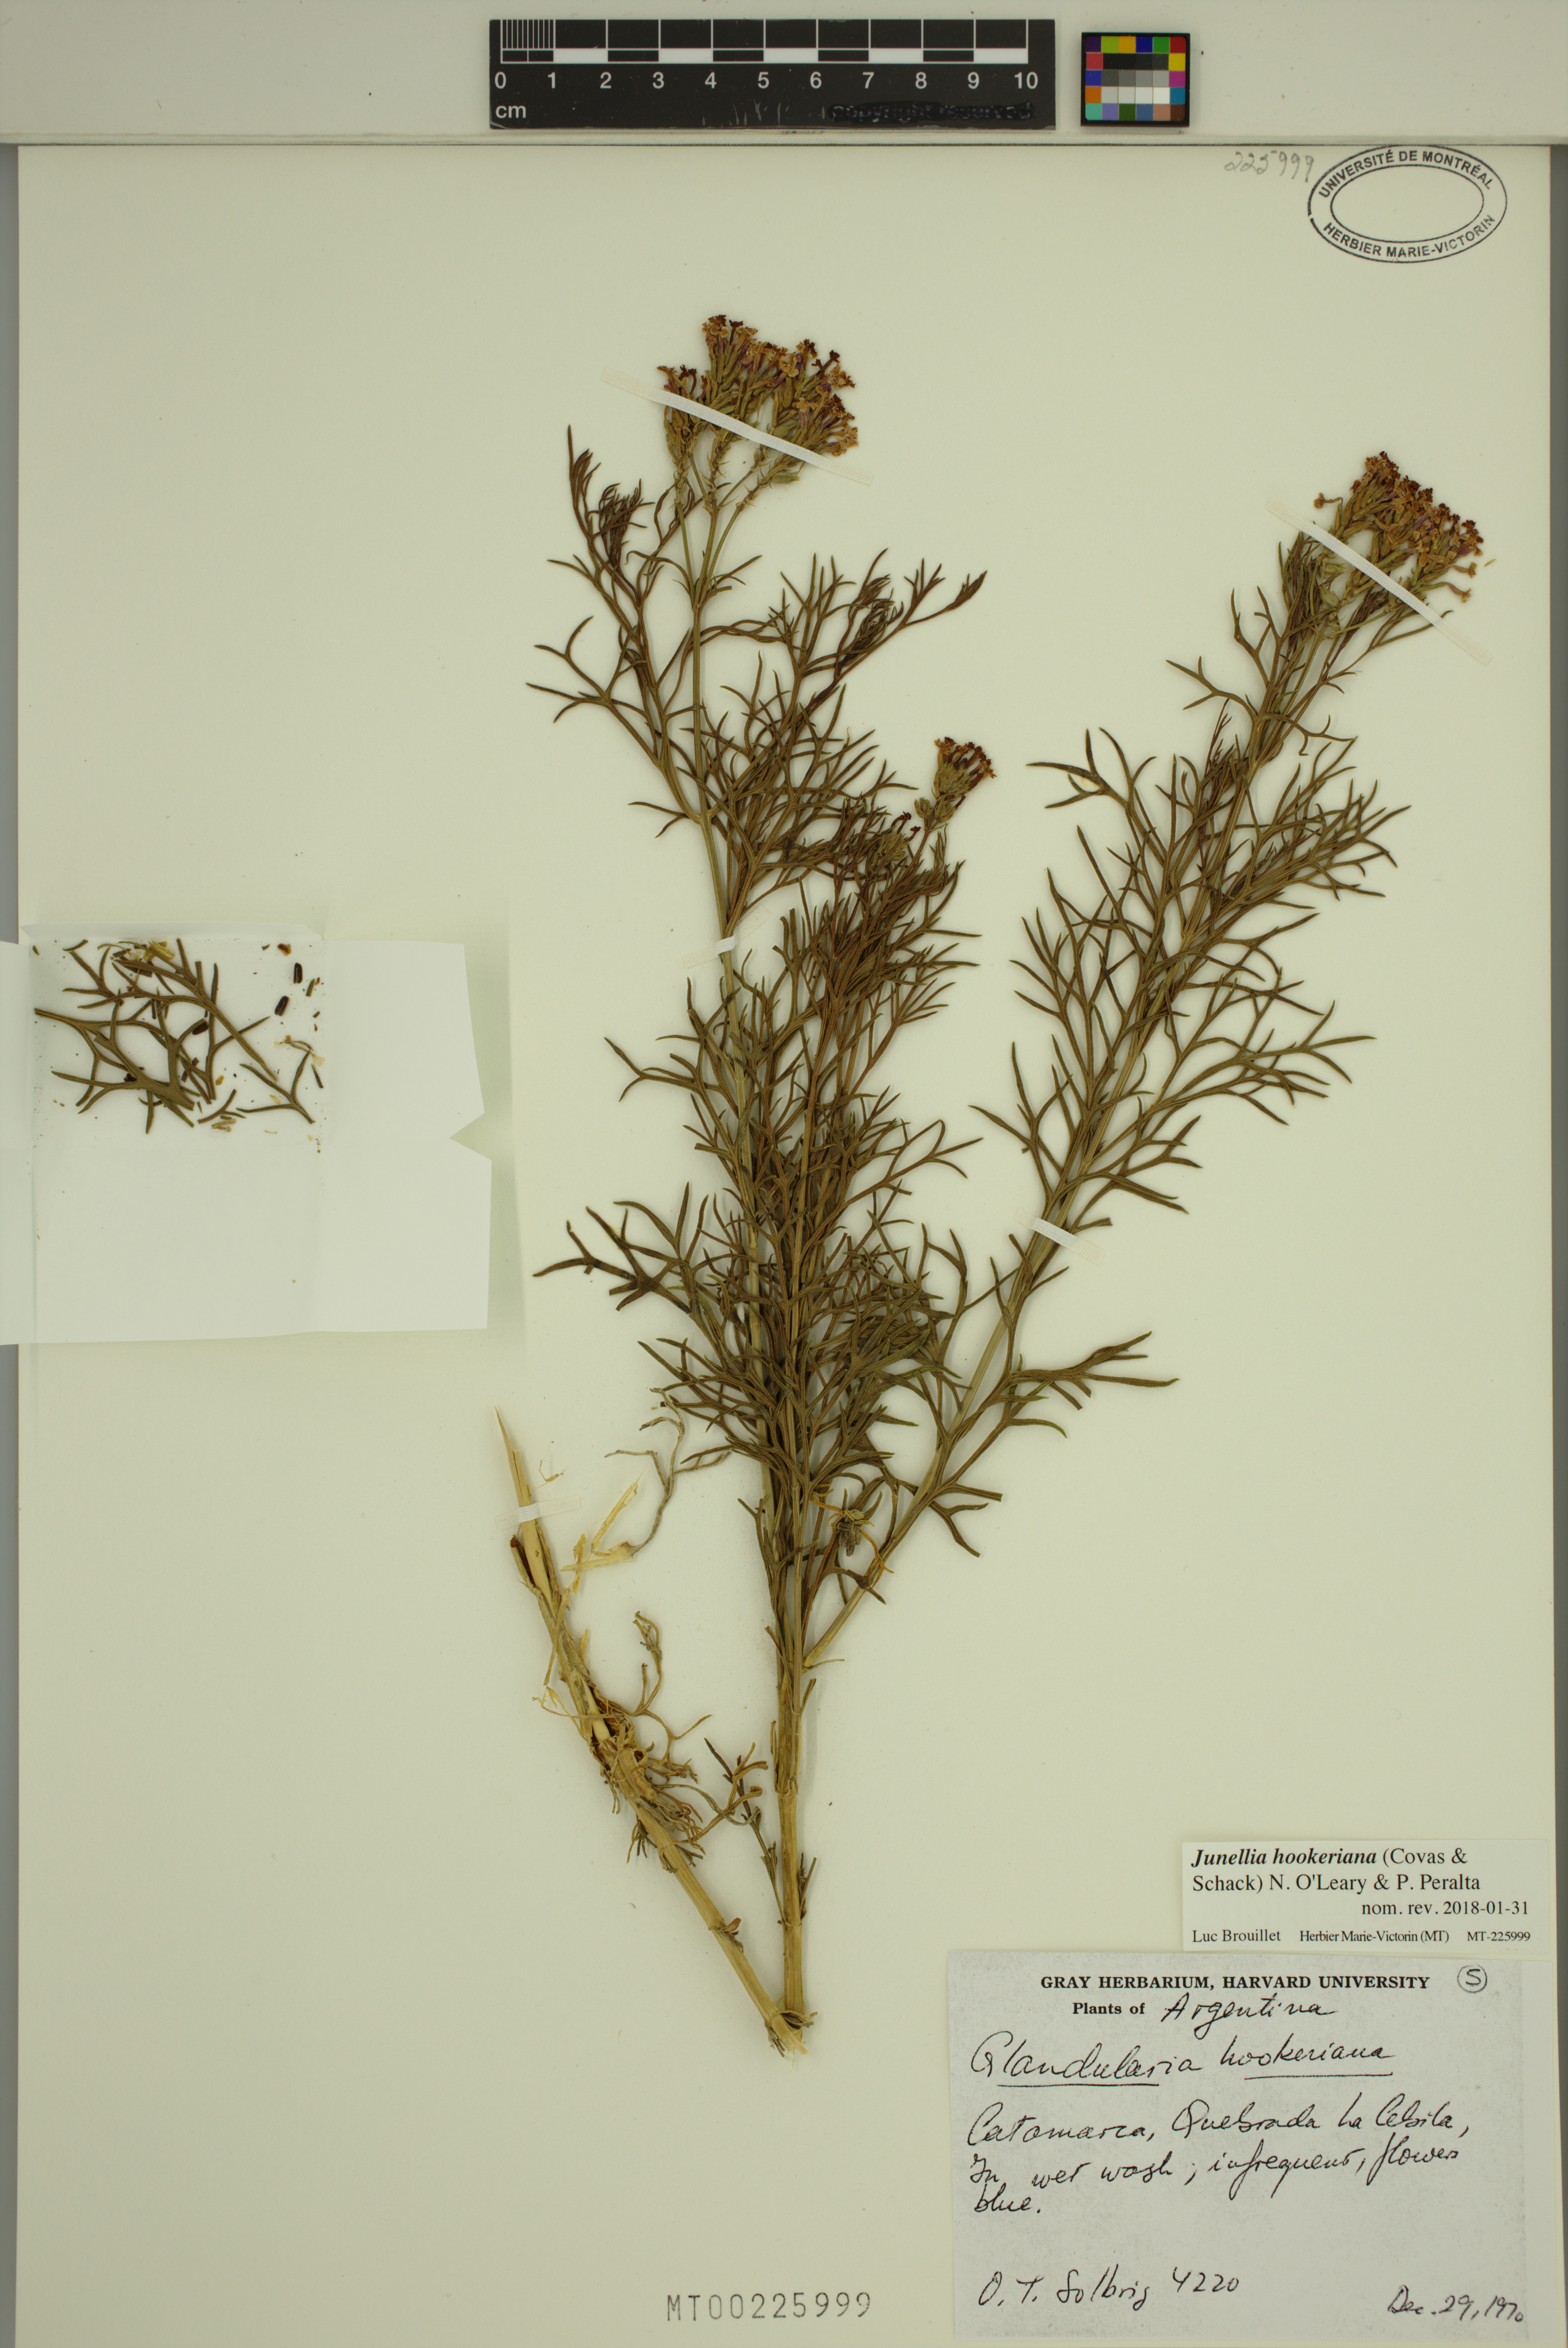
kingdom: Plantae
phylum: Tracheophyta
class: Magnoliopsida
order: Lamiales
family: Verbenaceae
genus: Junellia
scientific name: Junellia hookeriana
